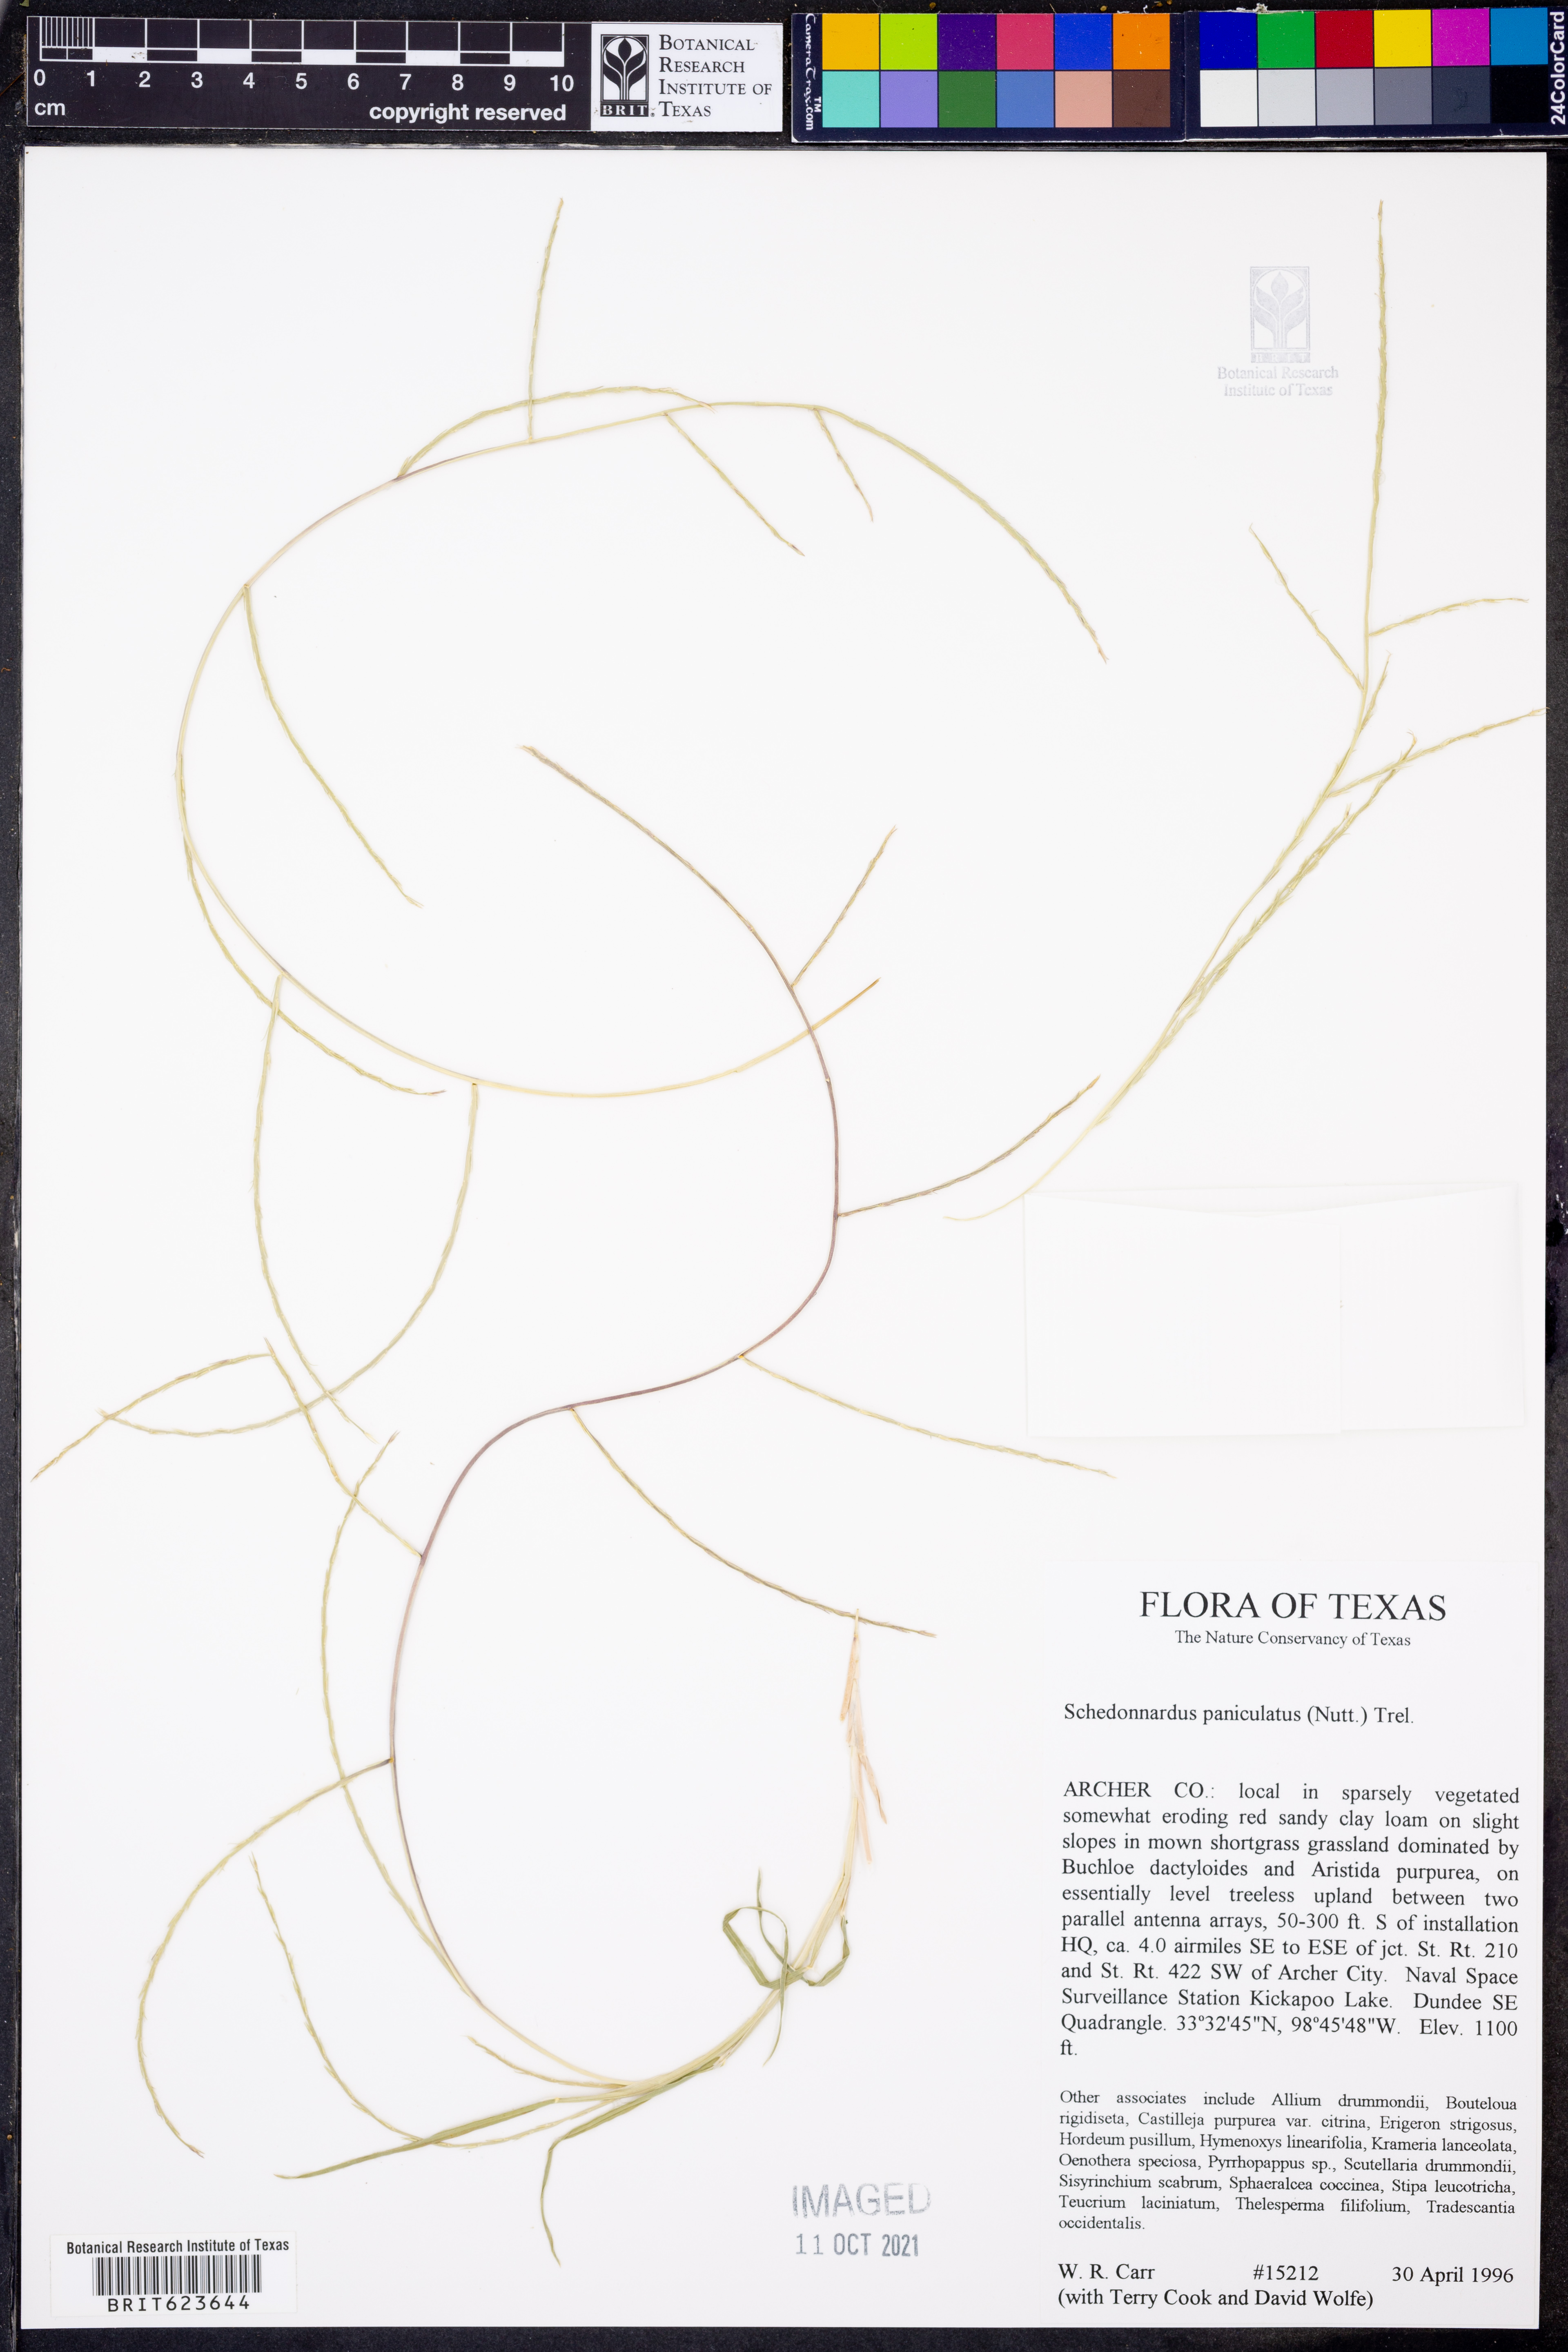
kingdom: Plantae
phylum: Tracheophyta
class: Liliopsida
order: Poales
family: Poaceae
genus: Muhlenbergia
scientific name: Muhlenbergia paniculata
